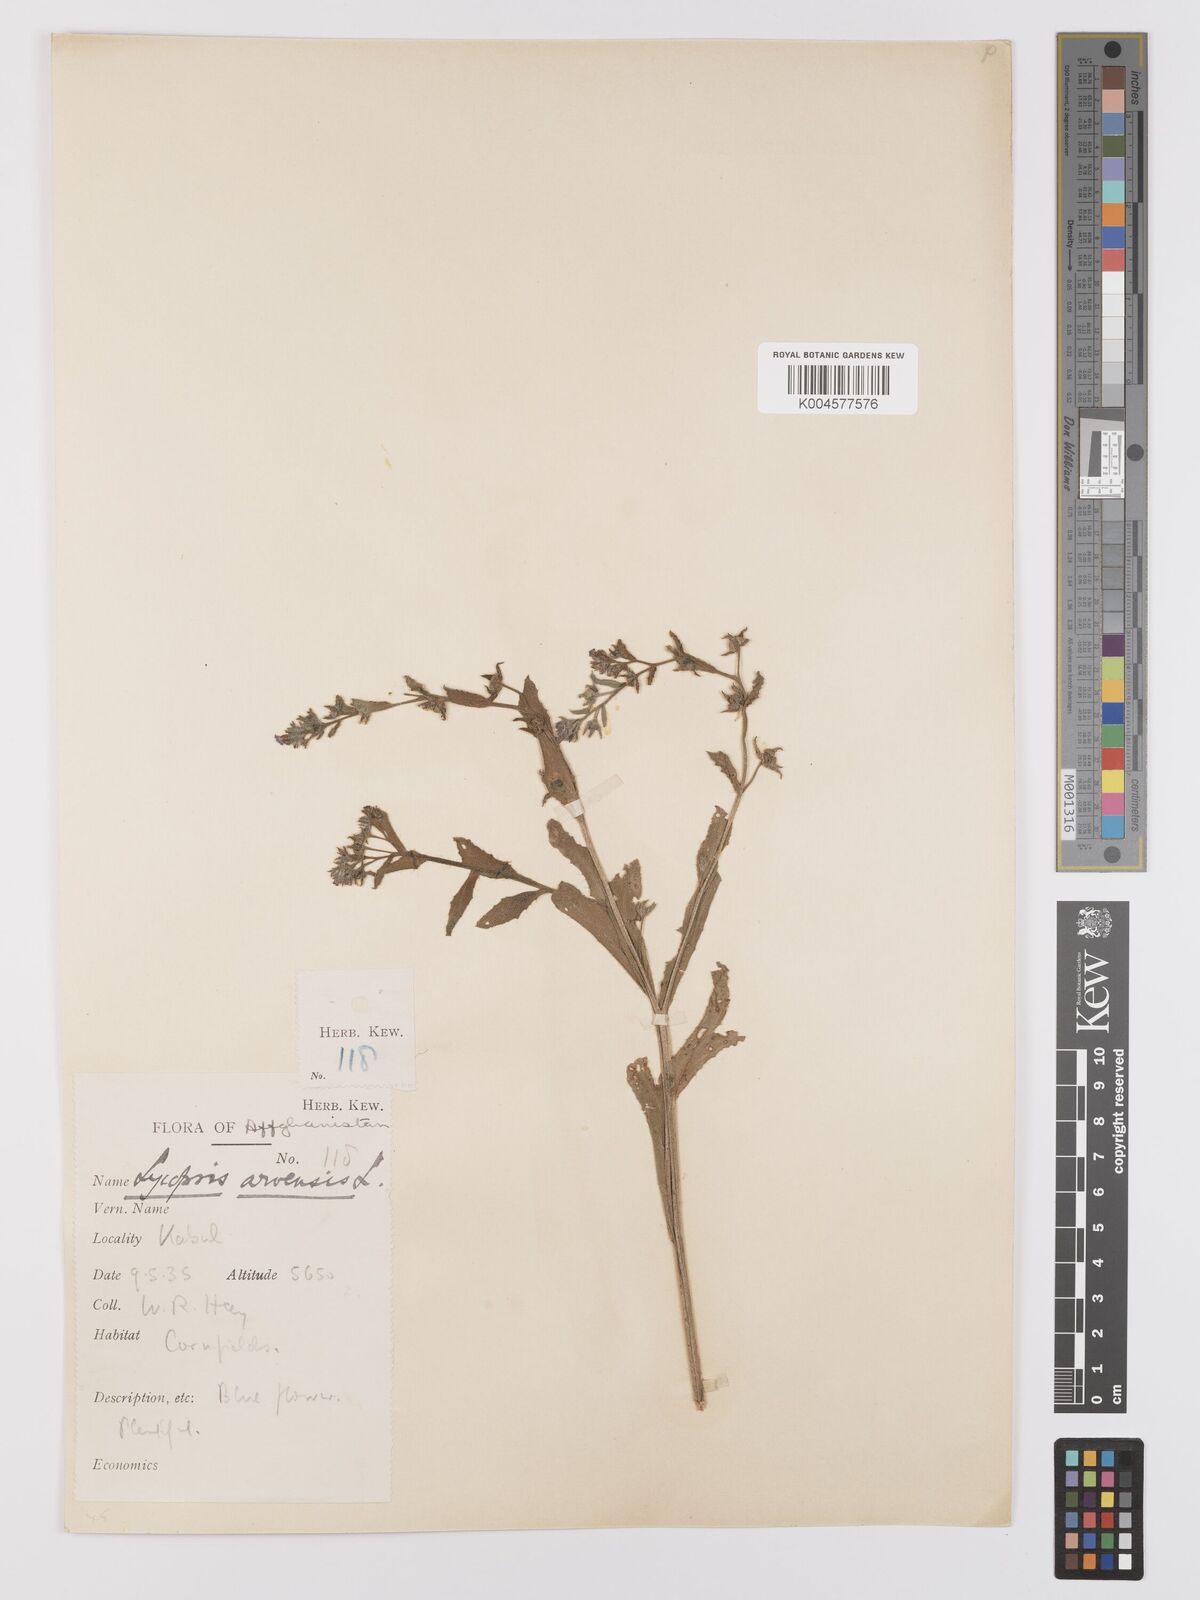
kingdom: Plantae
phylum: Tracheophyta
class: Magnoliopsida
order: Boraginales
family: Boraginaceae
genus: Lycopsis
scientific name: Lycopsis arvensis
